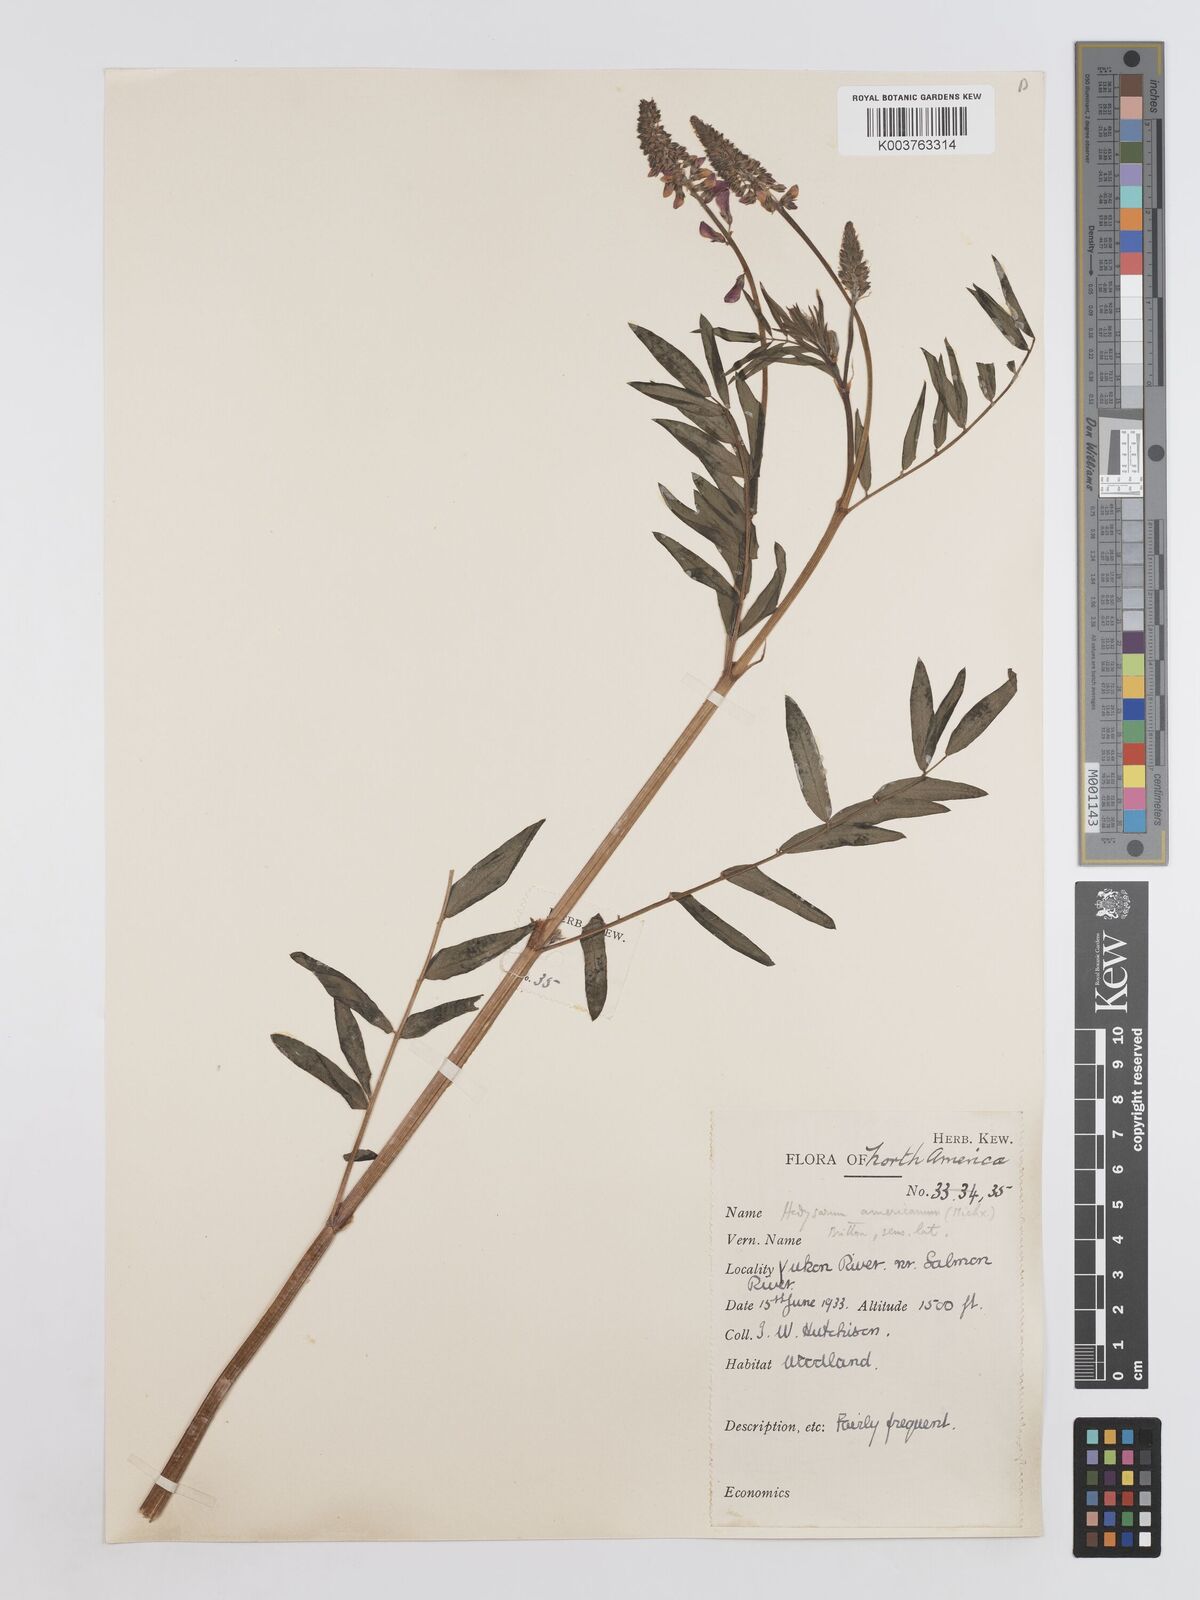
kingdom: Plantae
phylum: Tracheophyta
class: Magnoliopsida
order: Fabales
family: Fabaceae
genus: Hedysarum
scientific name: Hedysarum alpinum
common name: Alpine sweet-vetch
